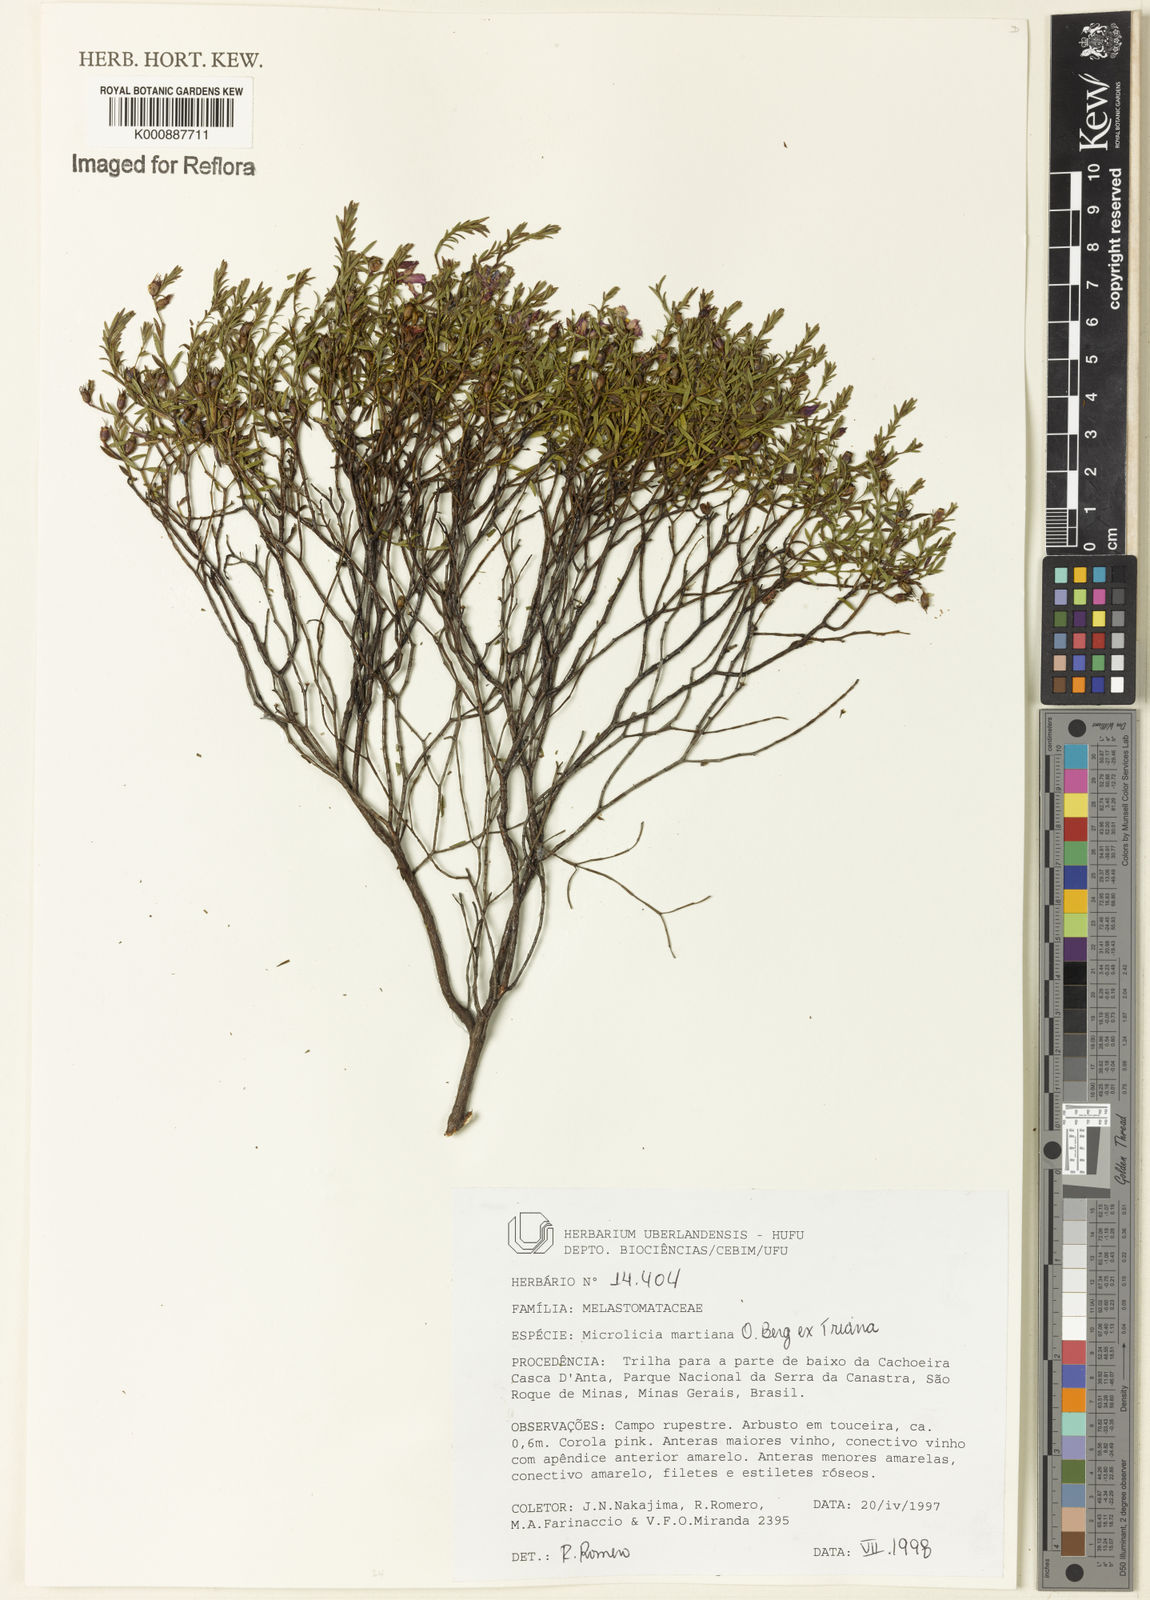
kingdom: Plantae
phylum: Tracheophyta
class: Magnoliopsida
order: Myrtales
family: Melastomataceae
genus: Microlicia
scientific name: Microlicia martiana
